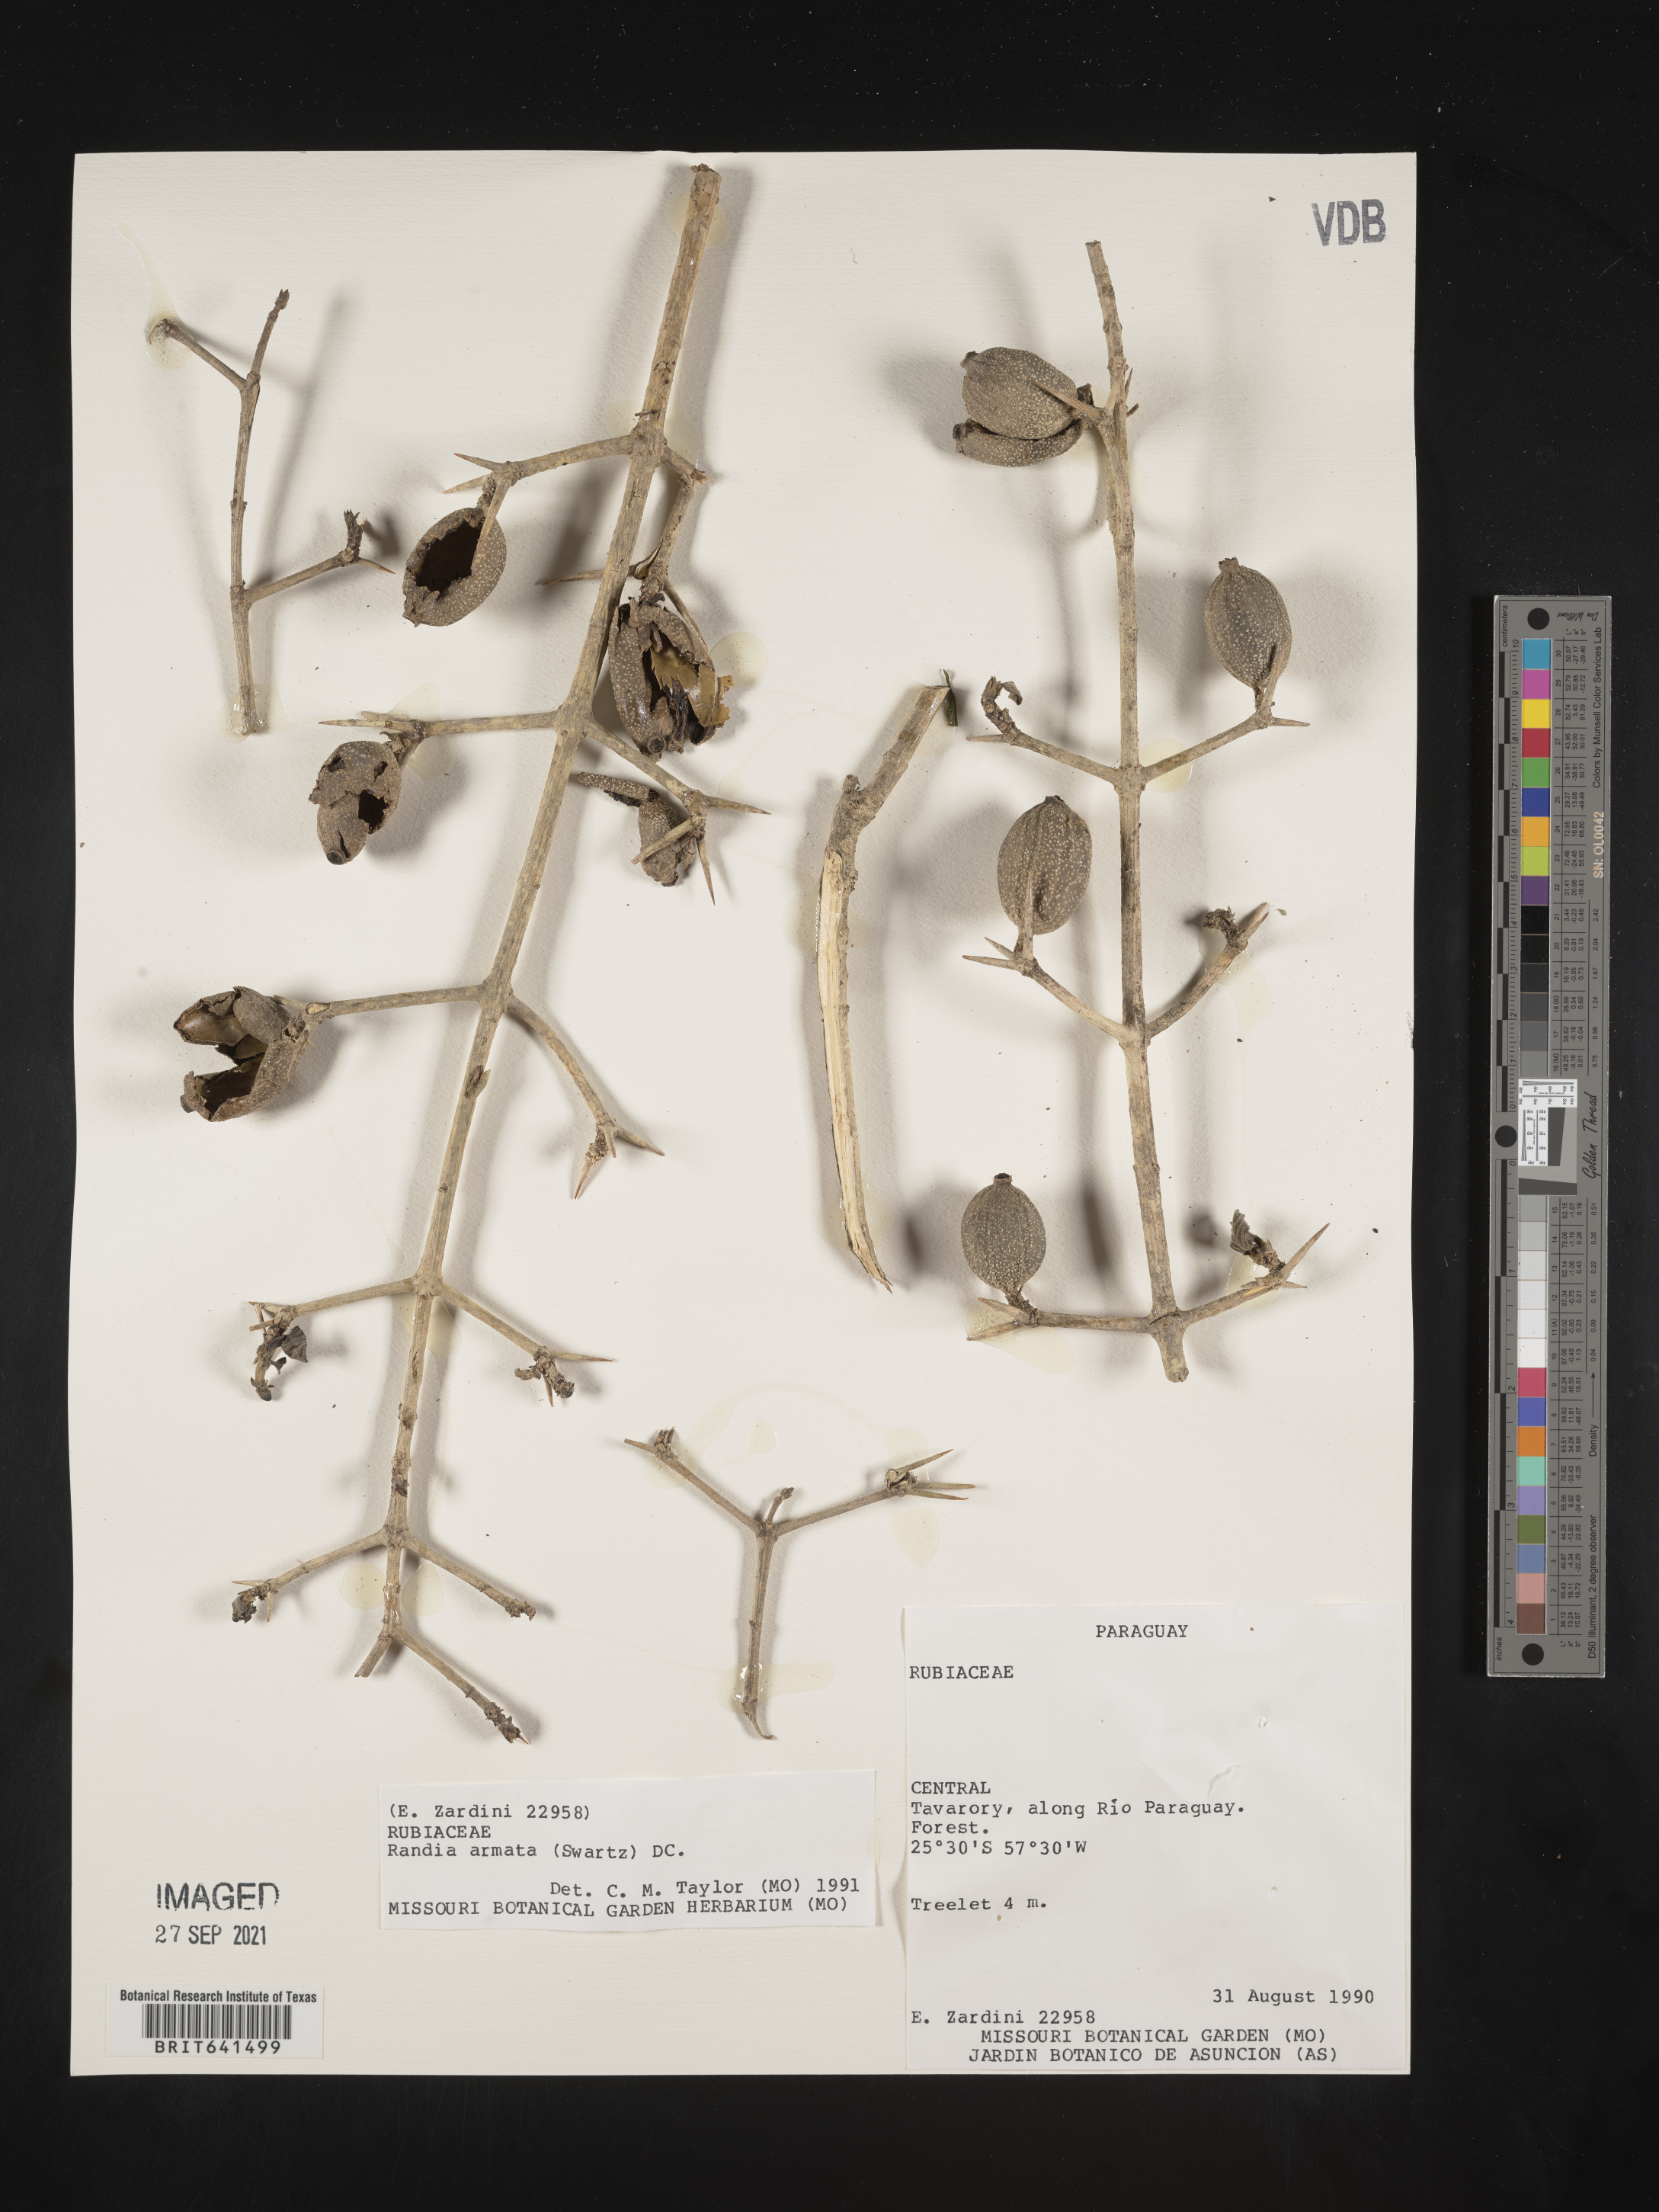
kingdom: Plantae
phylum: Tracheophyta
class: Magnoliopsida
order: Gentianales
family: Rubiaceae
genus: Randia
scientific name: Randia
